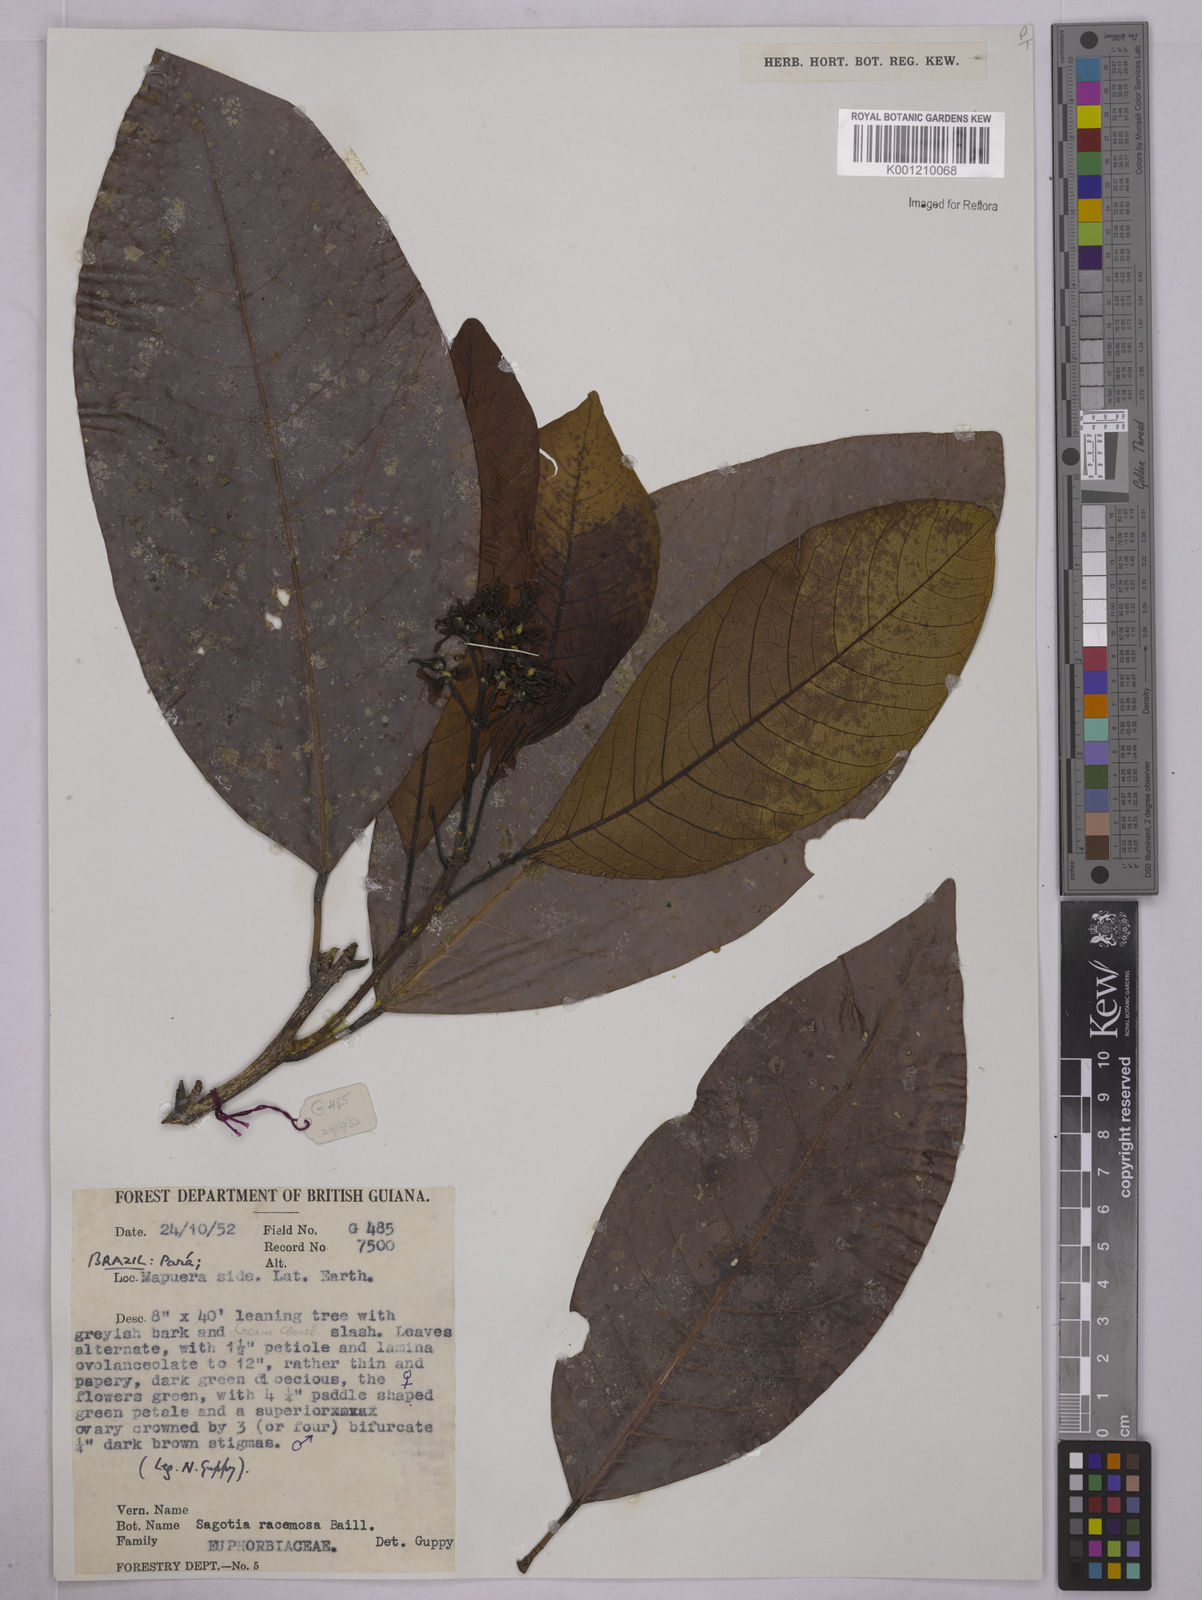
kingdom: Plantae
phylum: Tracheophyta
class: Magnoliopsida
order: Malpighiales
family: Euphorbiaceae
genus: Sagotia
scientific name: Sagotia racemosa
